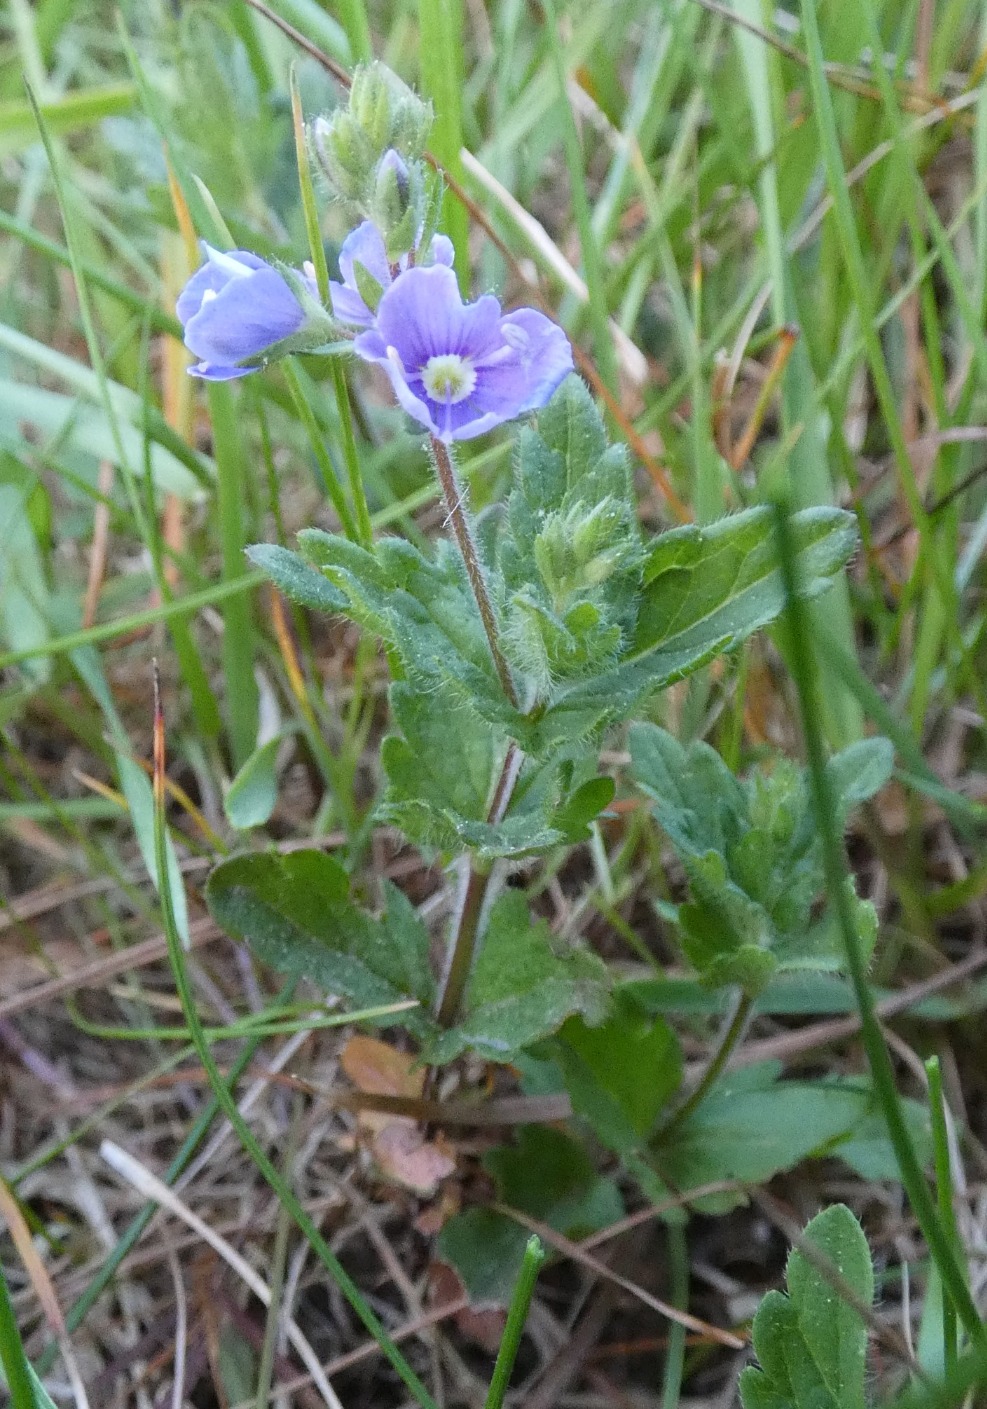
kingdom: Plantae
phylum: Tracheophyta
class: Magnoliopsida
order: Lamiales
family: Plantaginaceae
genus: Veronica
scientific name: Veronica chamaedrys
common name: Tveskægget ærenpris
